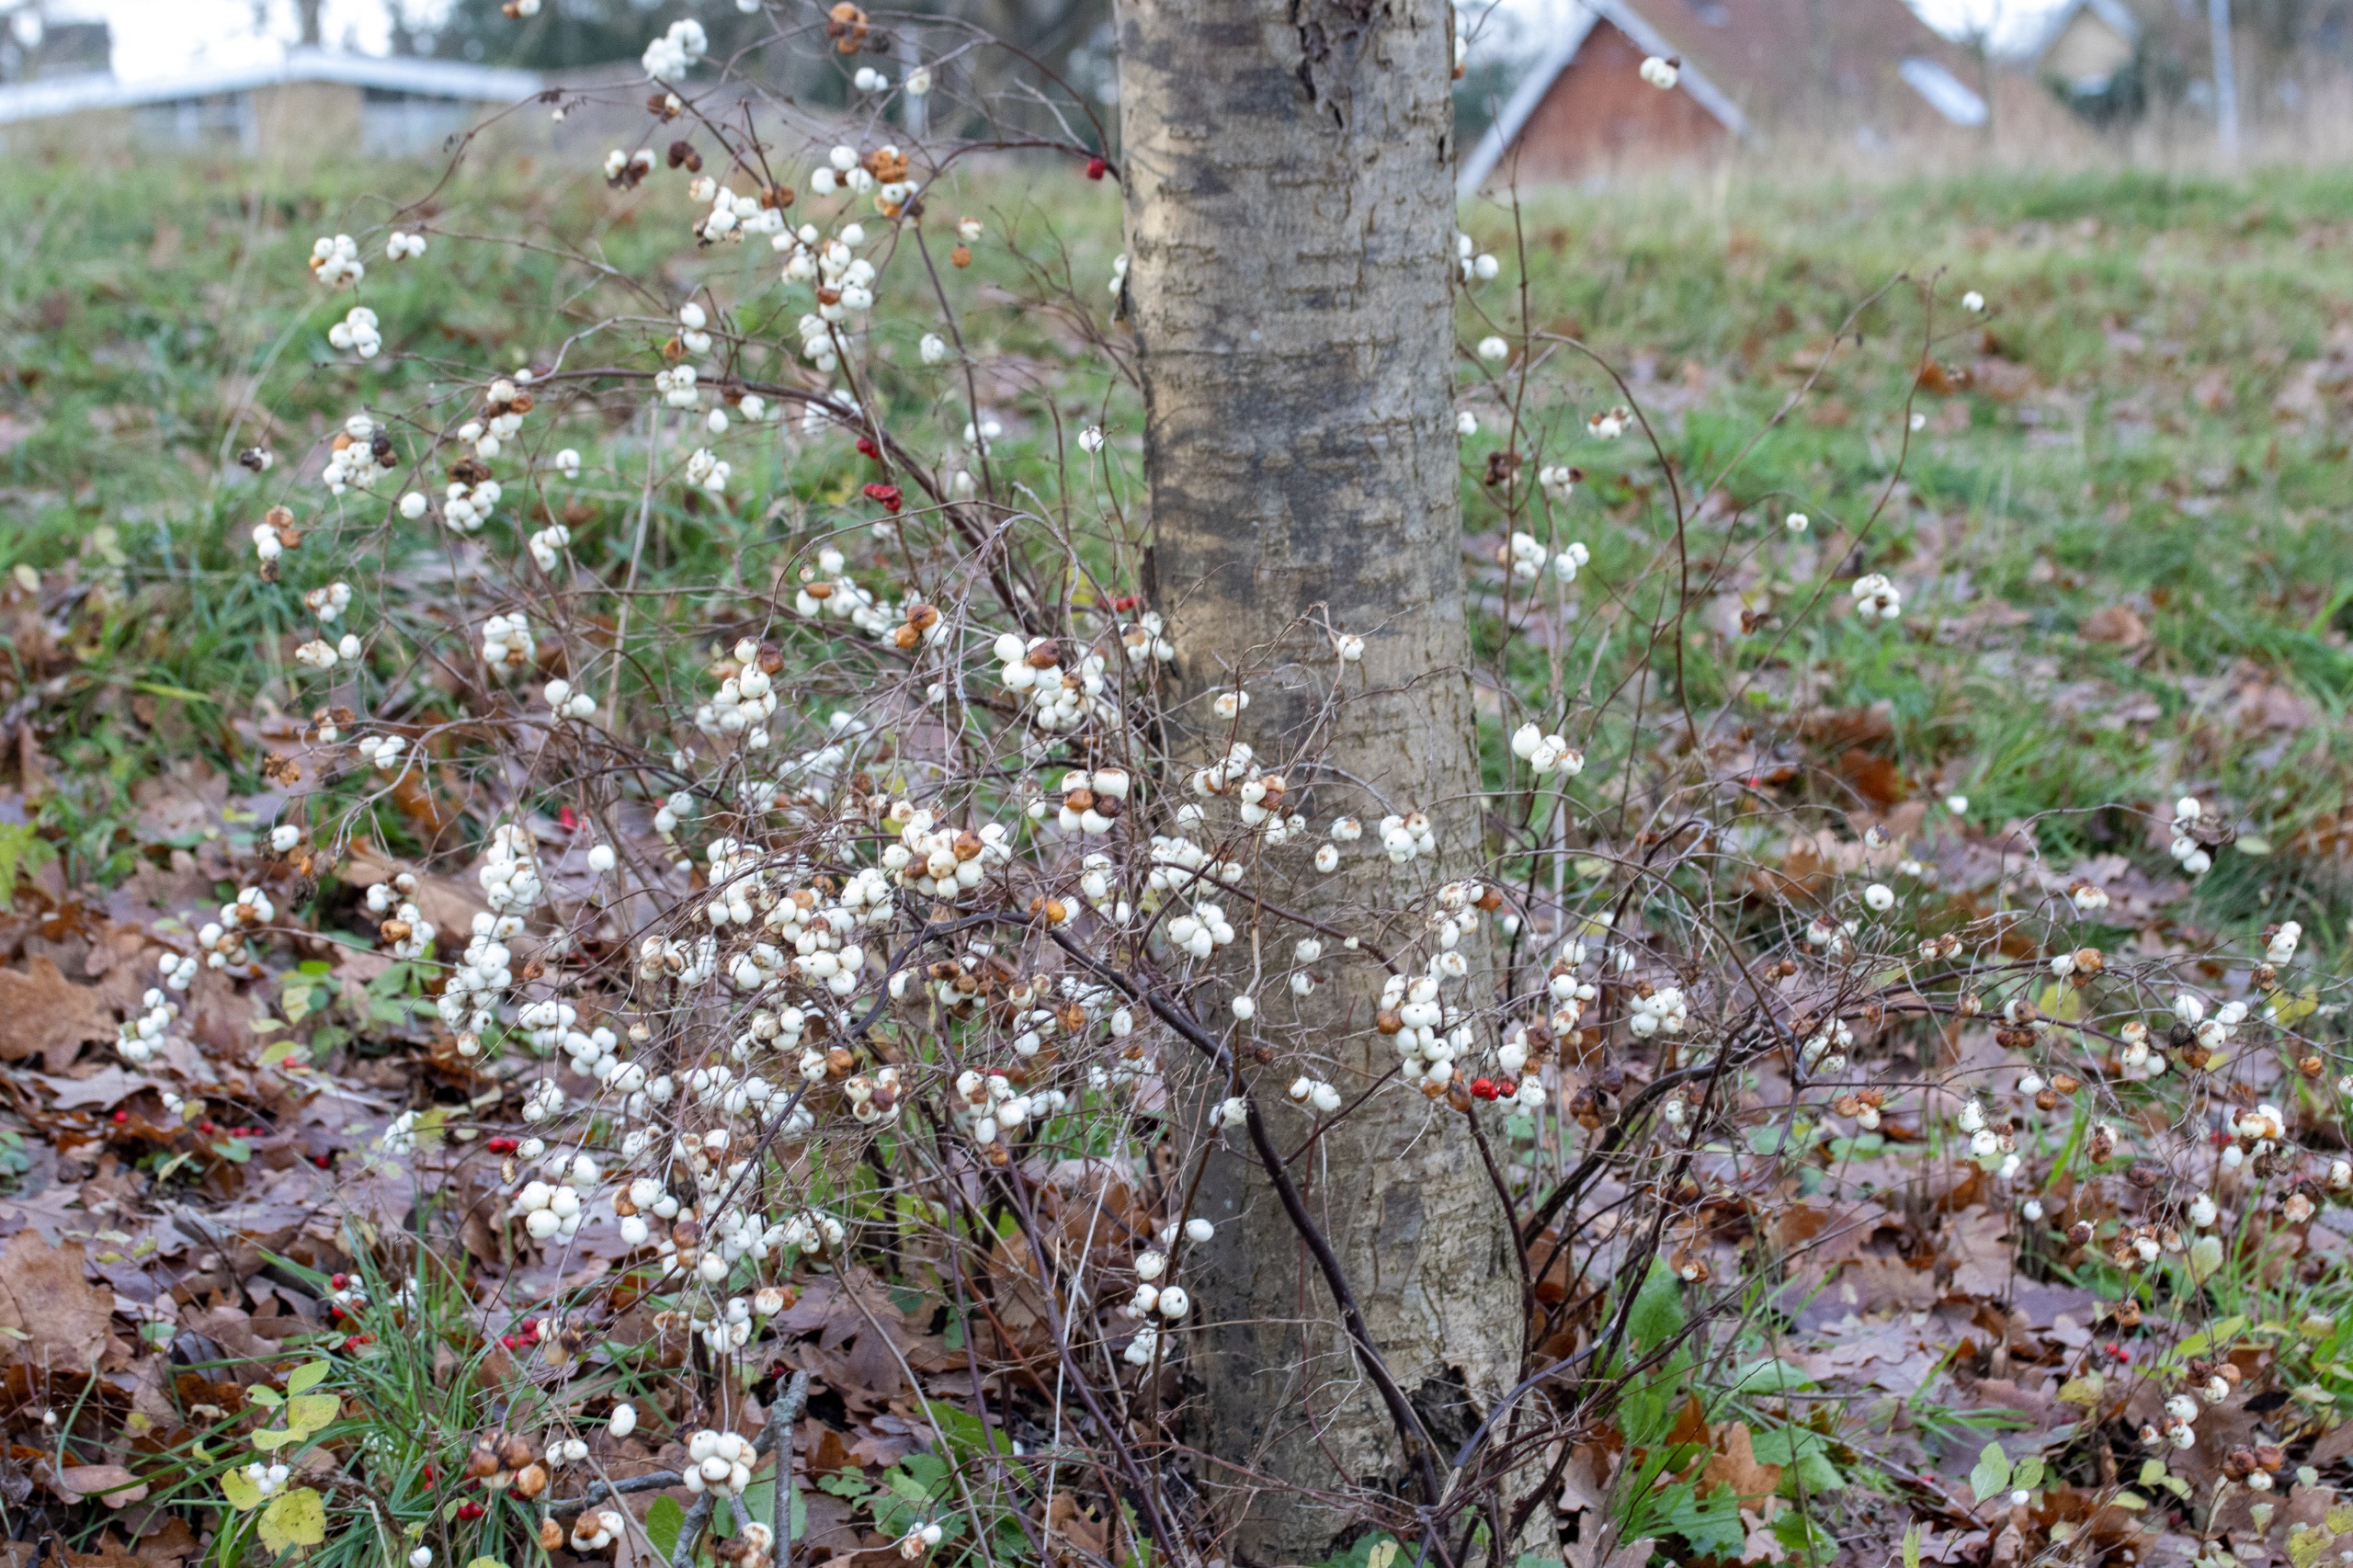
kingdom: Plantae
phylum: Tracheophyta
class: Magnoliopsida
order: Dipsacales
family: Caprifoliaceae
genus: Symphoricarpos
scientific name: Symphoricarpos albus
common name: Almindelig snebær
